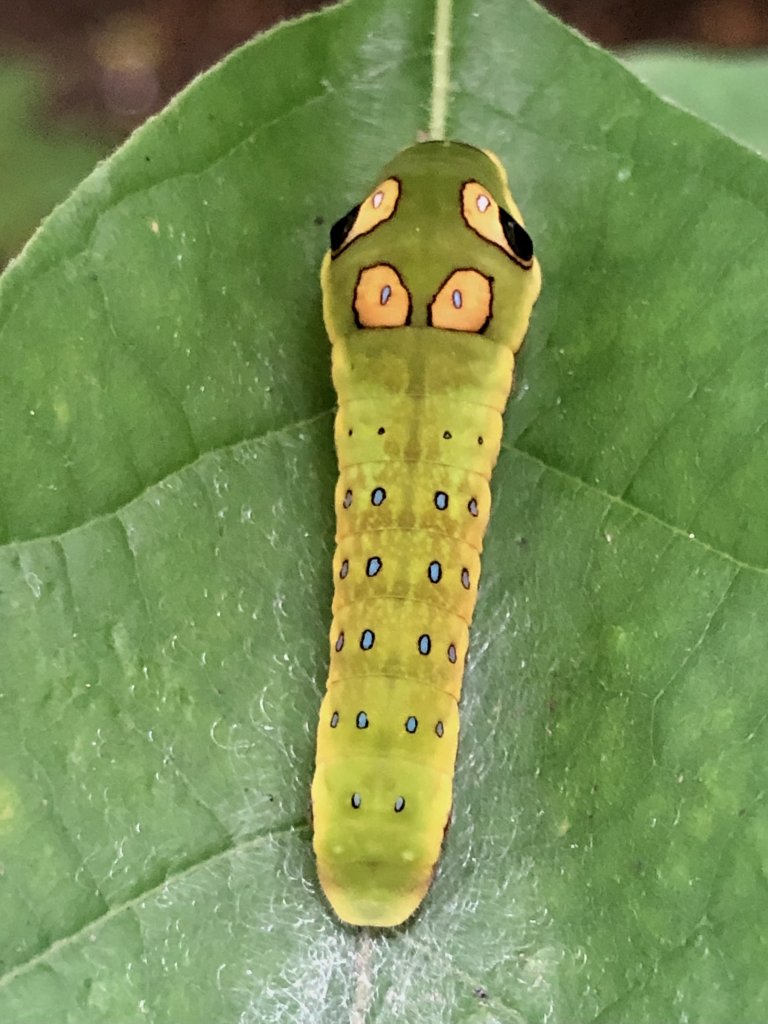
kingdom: Animalia
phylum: Arthropoda
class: Insecta
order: Lepidoptera
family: Papilionidae
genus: Pterourus
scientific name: Pterourus troilus
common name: Spicebush Swallowtail
